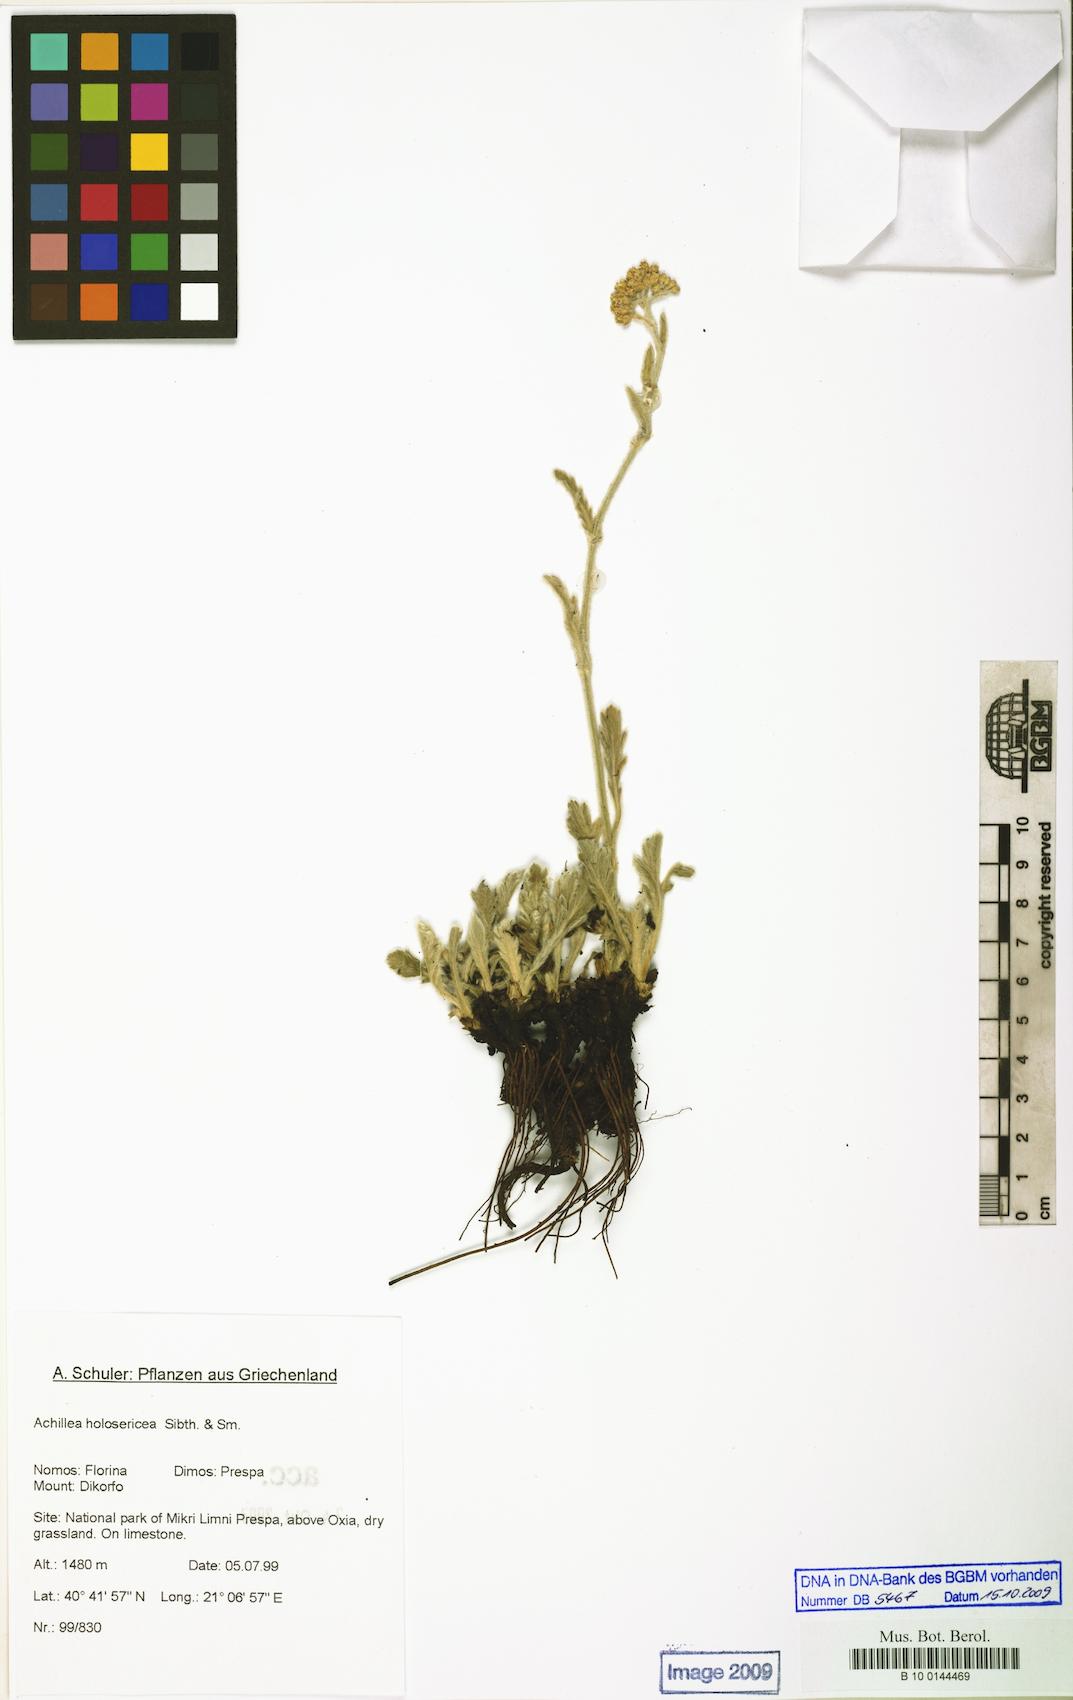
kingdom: Plantae
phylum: Tracheophyta
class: Magnoliopsida
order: Asterales
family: Asteraceae
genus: Achillea
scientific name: Achillea holosericea
